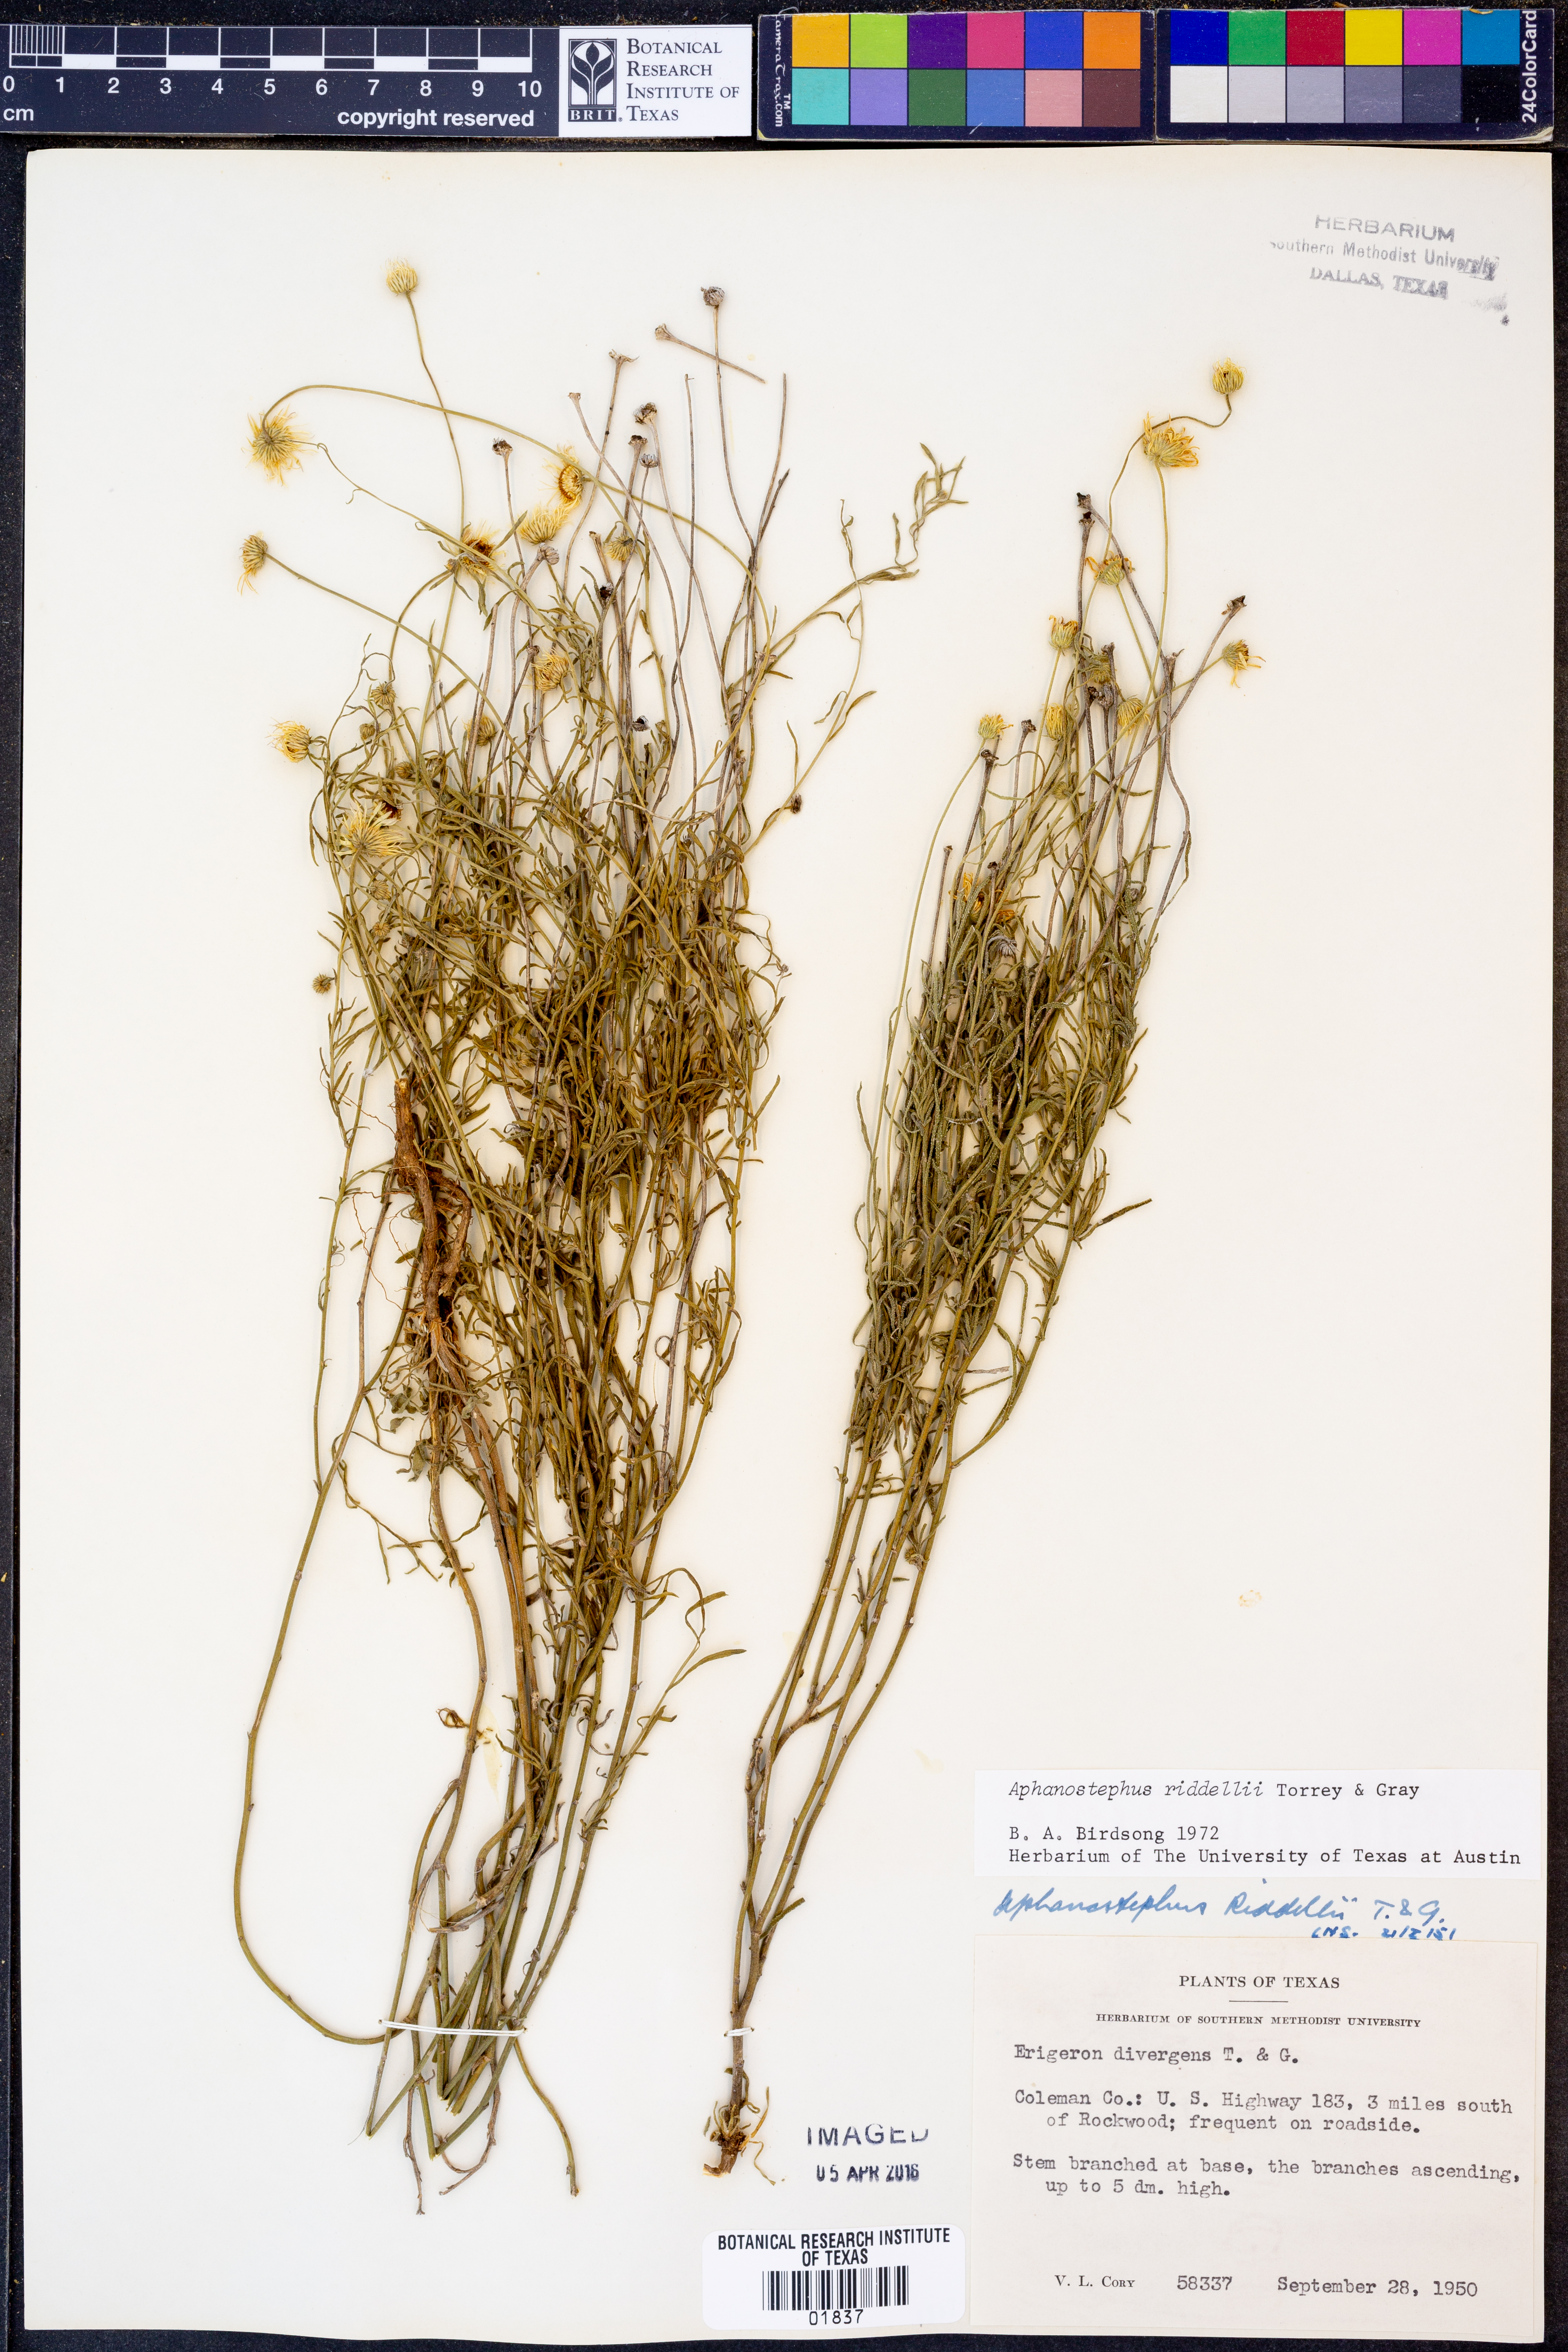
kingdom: Plantae
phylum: Tracheophyta
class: Magnoliopsida
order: Asterales
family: Asteraceae
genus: Aphanostephus
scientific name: Aphanostephus riddellii
